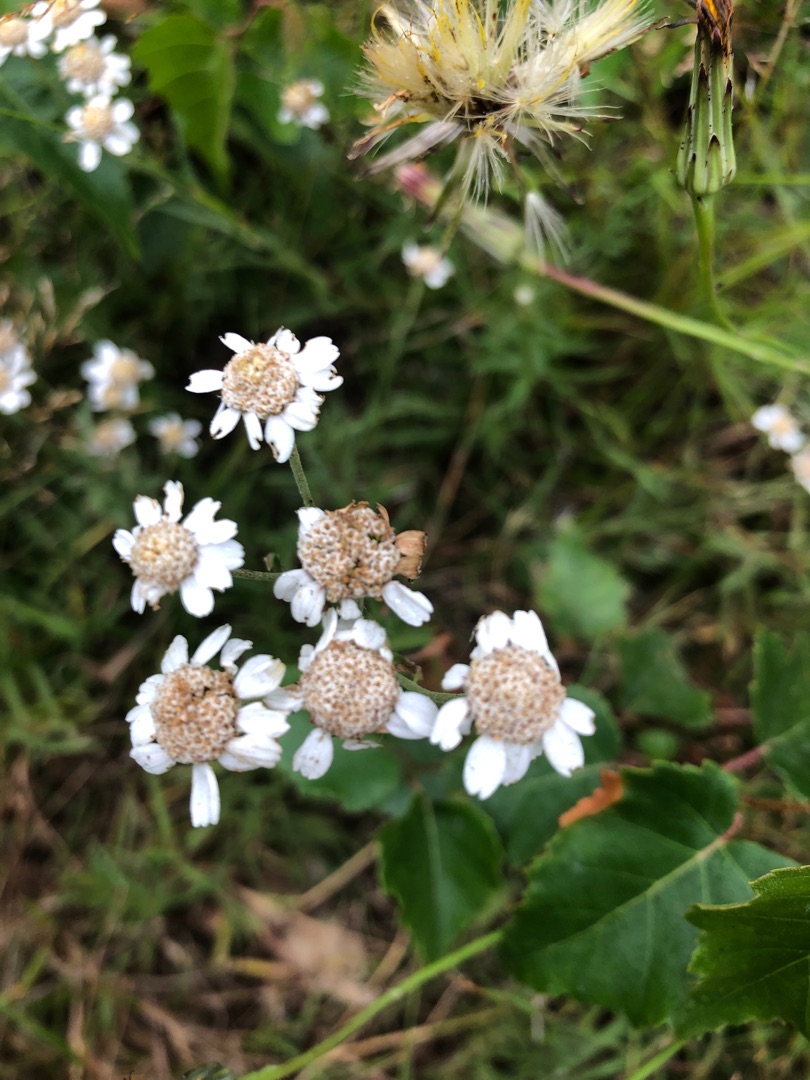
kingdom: Plantae
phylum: Tracheophyta
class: Magnoliopsida
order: Asterales
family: Asteraceae
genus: Achillea
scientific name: Achillea ptarmica
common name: Nyse-røllike
